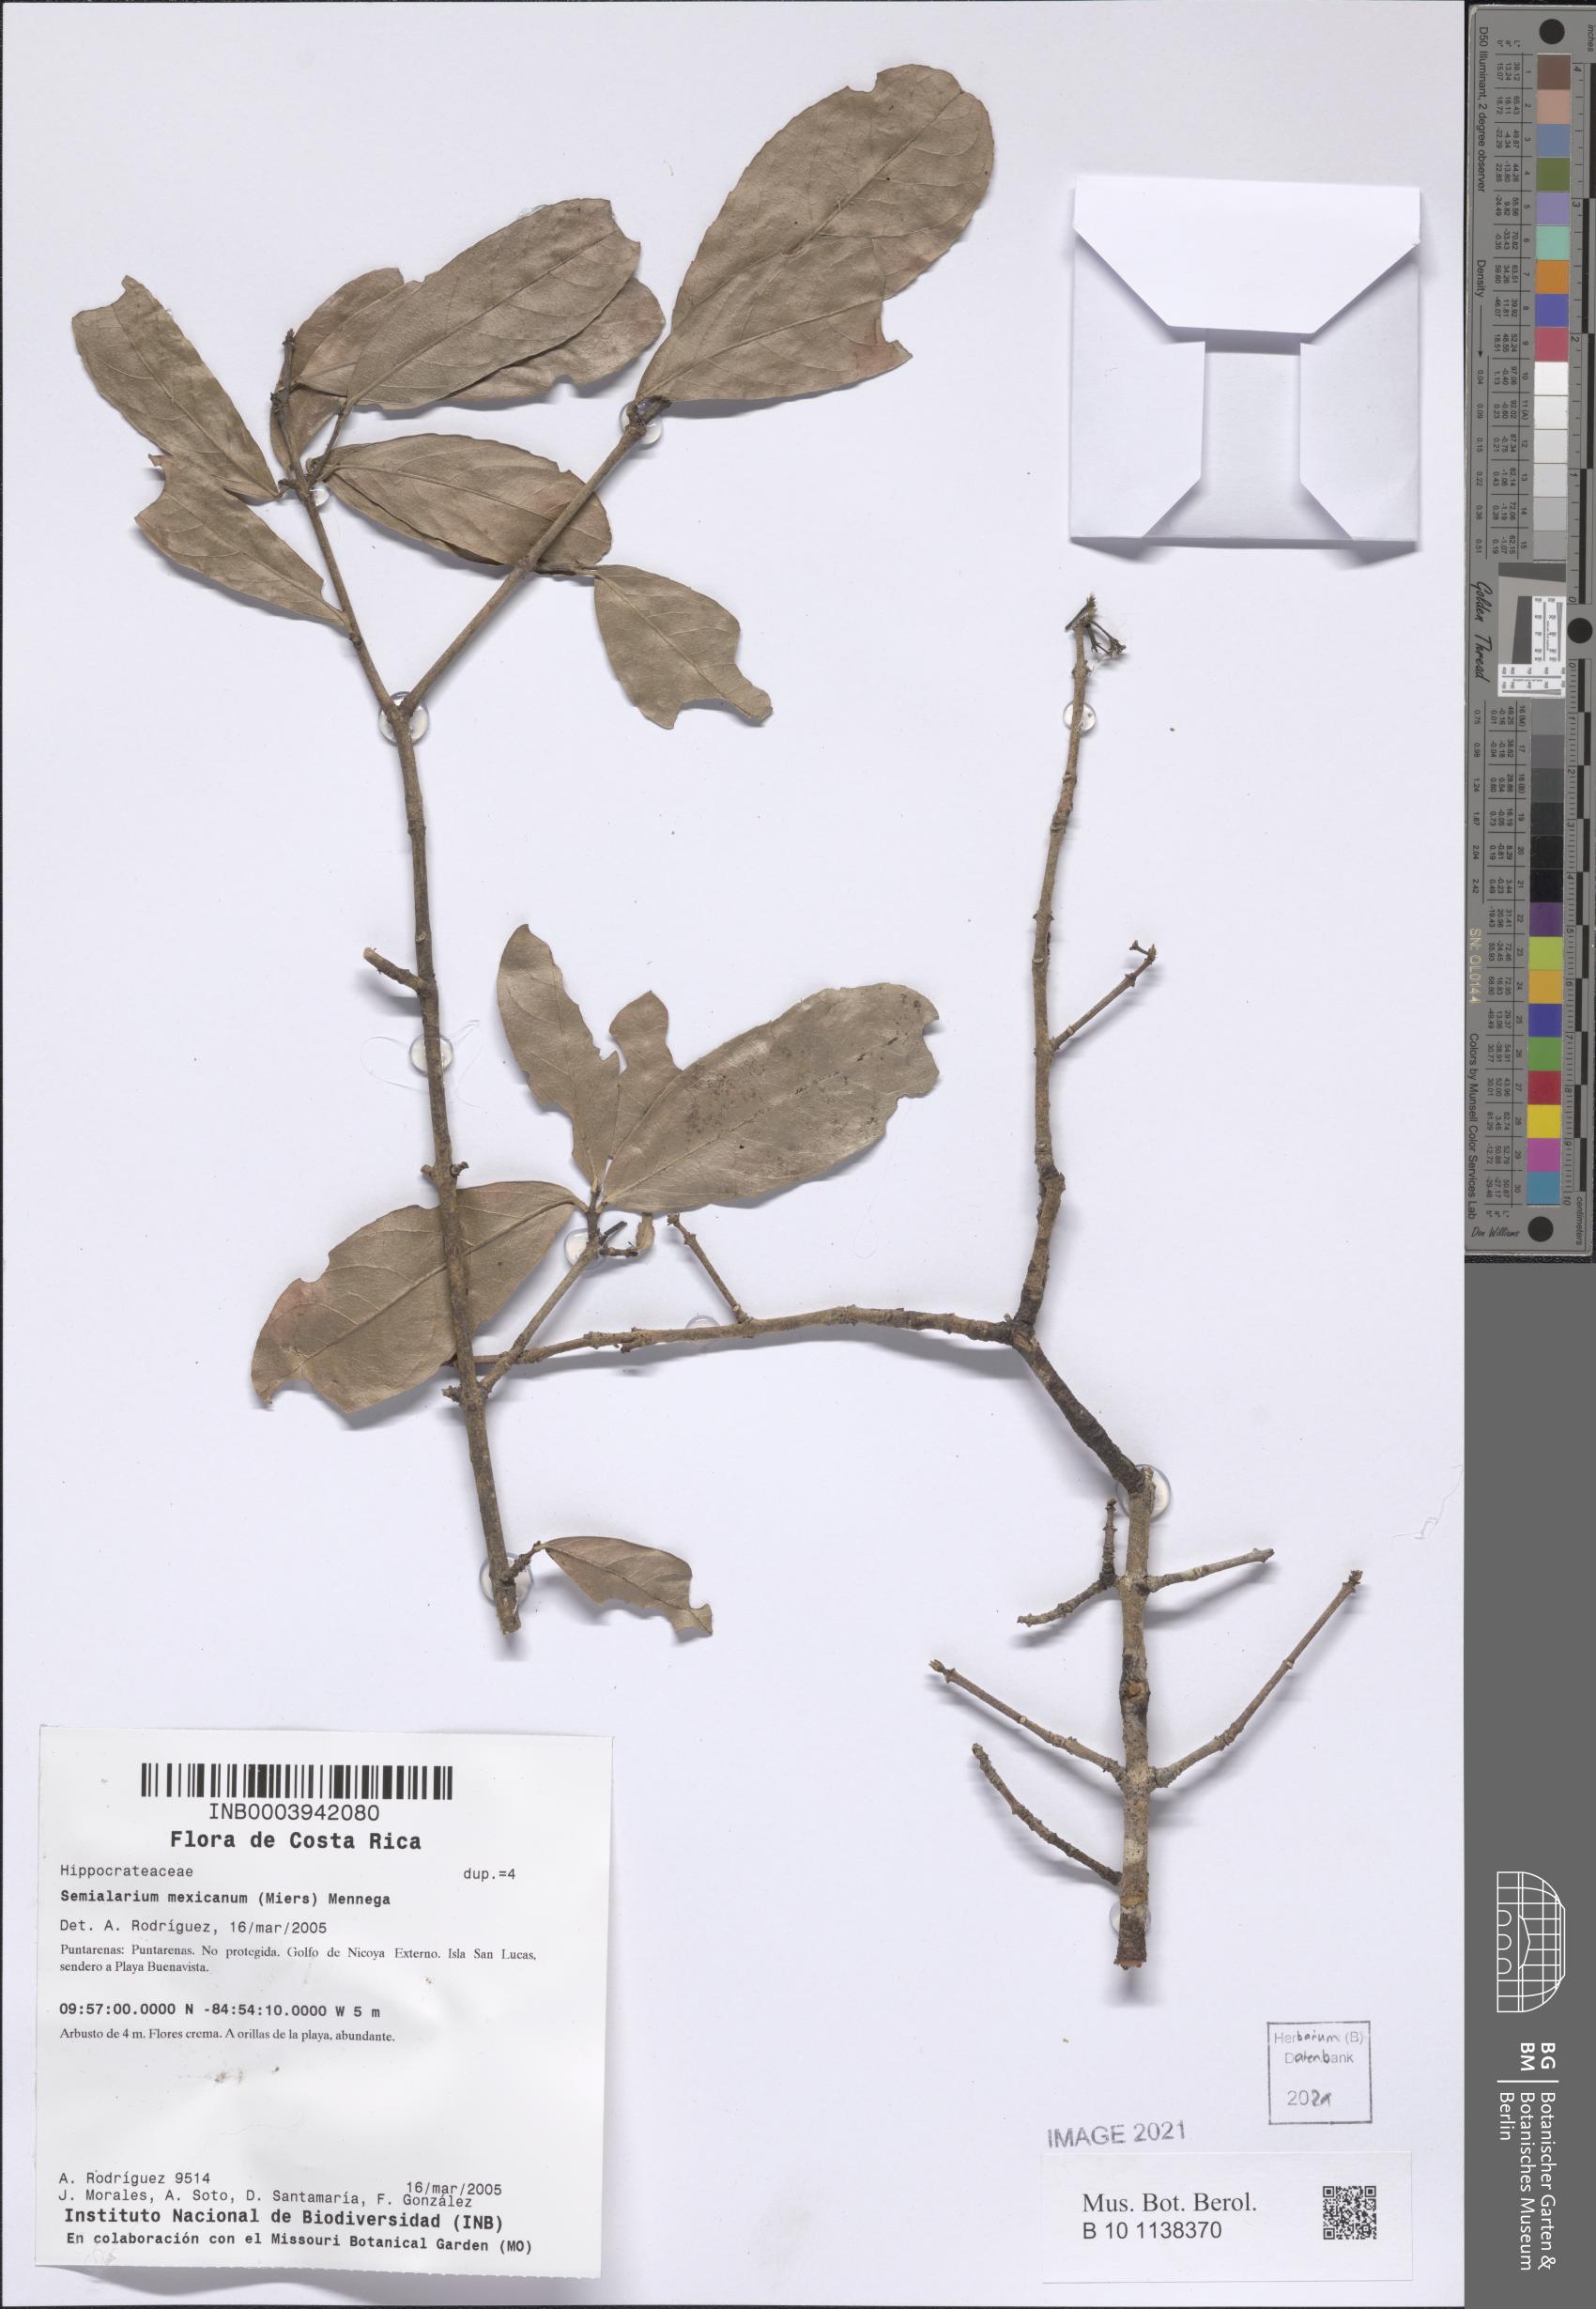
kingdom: Plantae
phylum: Tracheophyta
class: Magnoliopsida
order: Celastrales
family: Celastraceae
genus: Semialarium
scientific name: Semialarium mexicanum
